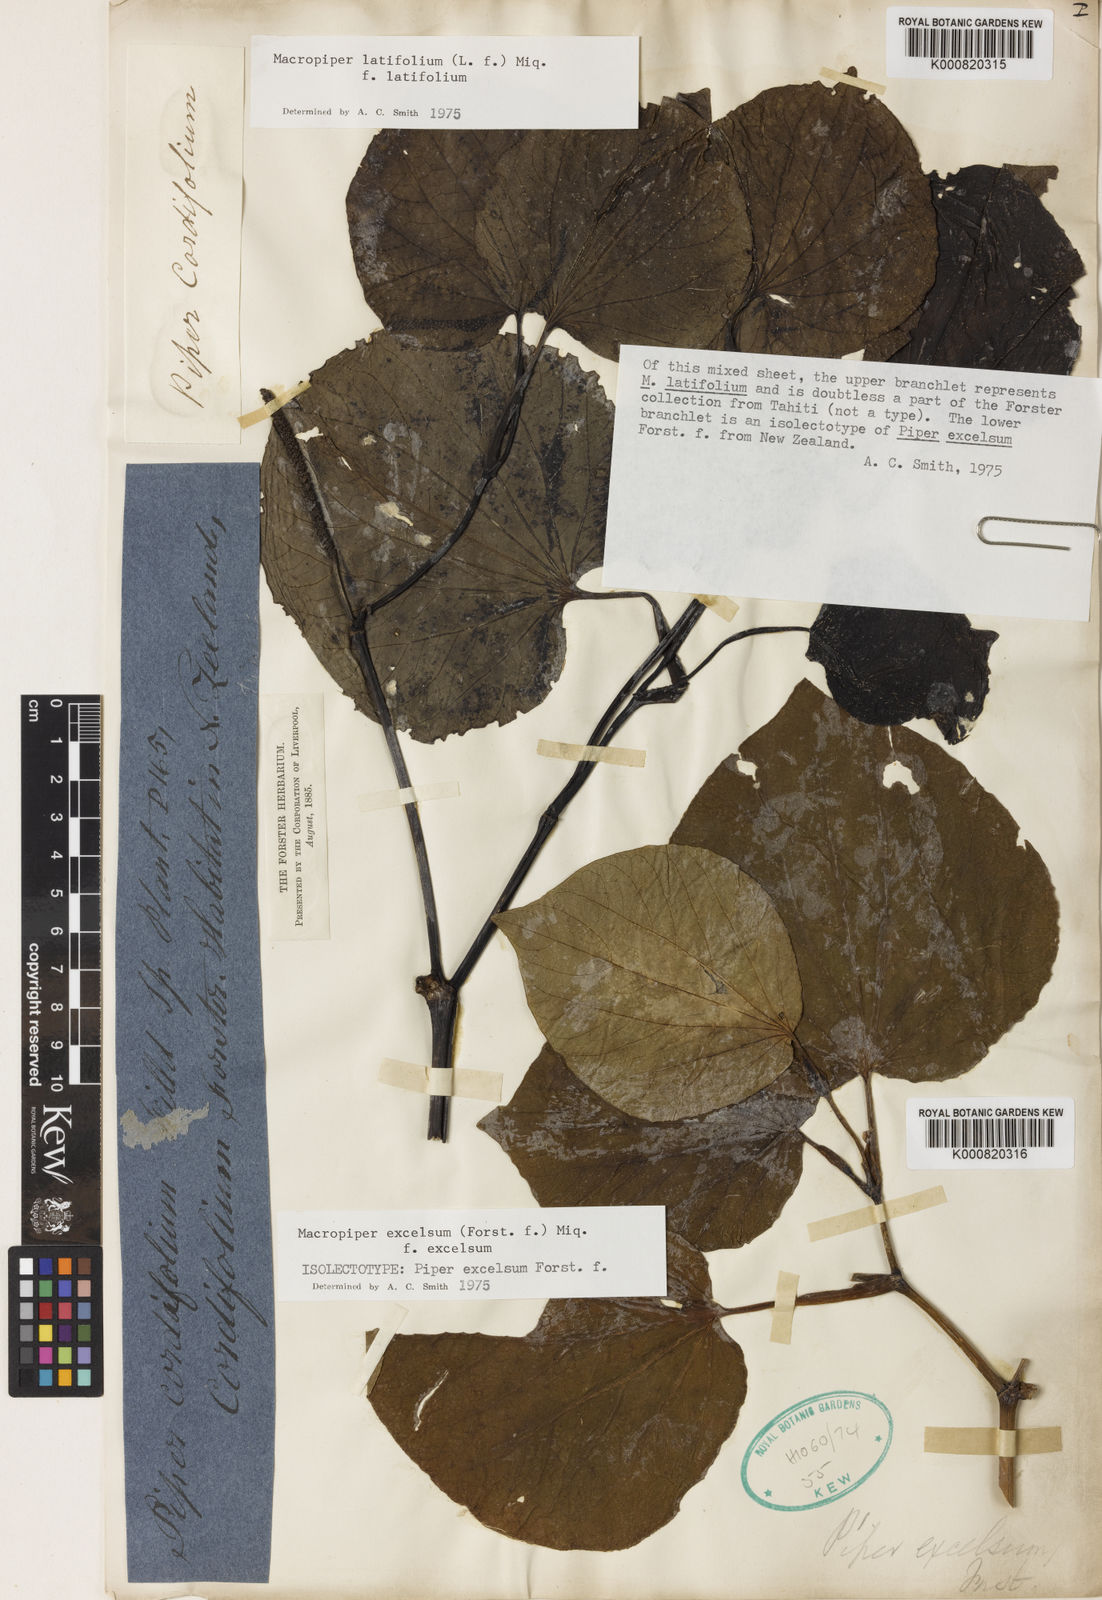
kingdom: Plantae
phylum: Tracheophyta
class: Magnoliopsida
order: Piperales
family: Piperaceae
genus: Macropiper
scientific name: Macropiper excelsum
